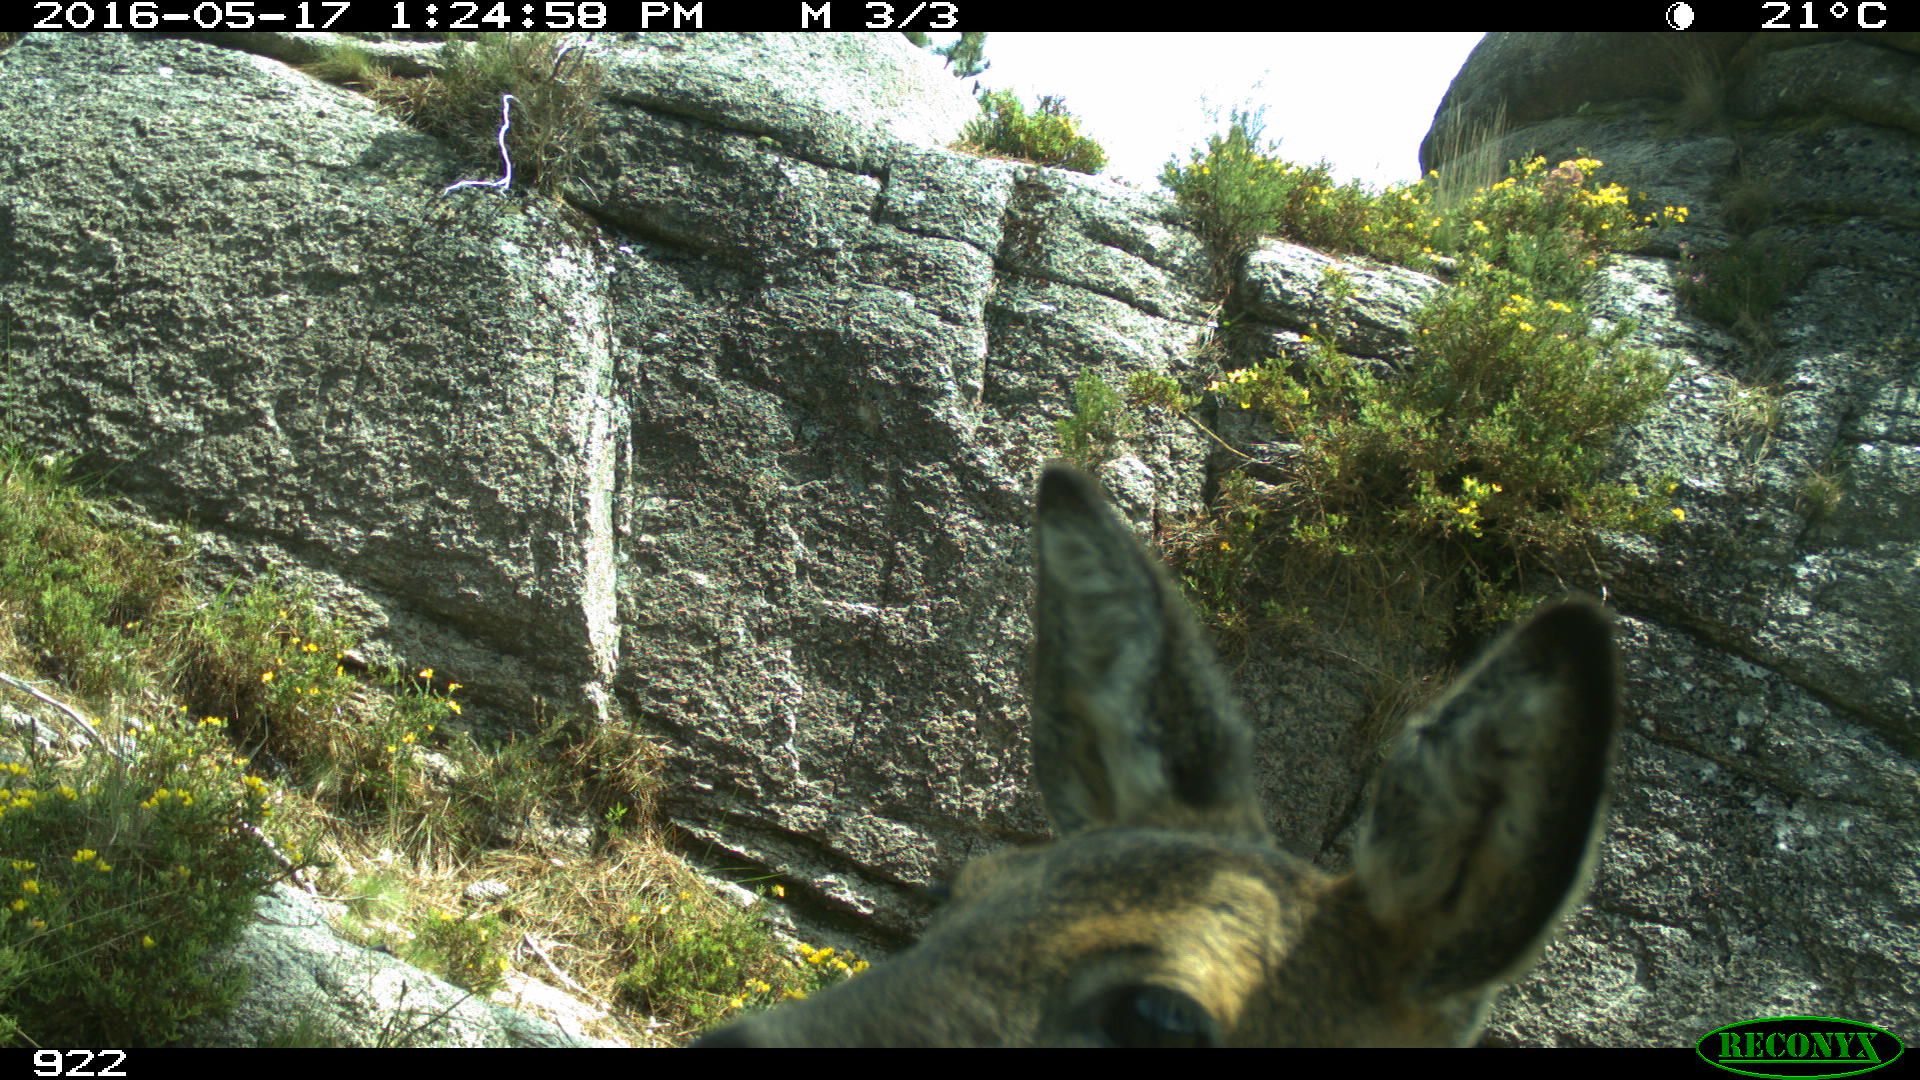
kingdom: Animalia
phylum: Chordata
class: Mammalia
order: Artiodactyla
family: Cervidae
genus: Capreolus
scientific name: Capreolus capreolus
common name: Western roe deer
